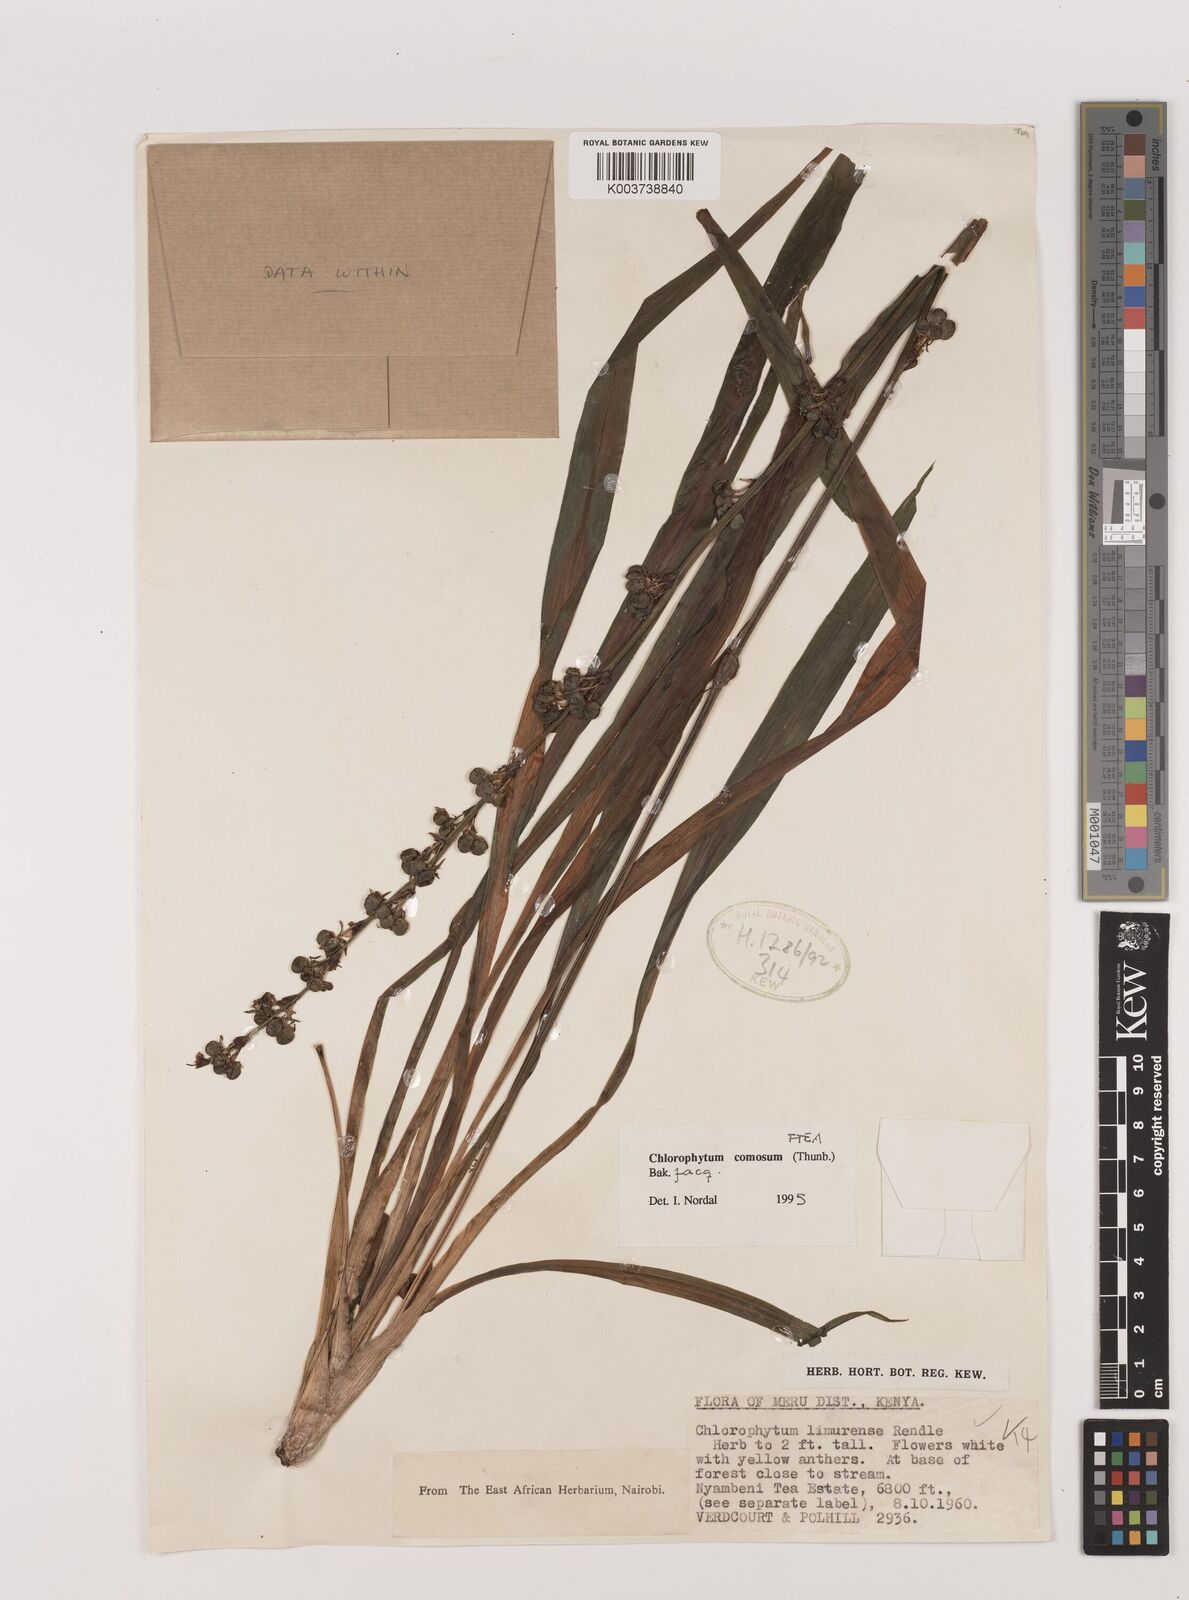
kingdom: Plantae
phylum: Tracheophyta
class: Liliopsida
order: Asparagales
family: Asparagaceae
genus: Chlorophytum
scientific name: Chlorophytum comosum
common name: Spider plant
